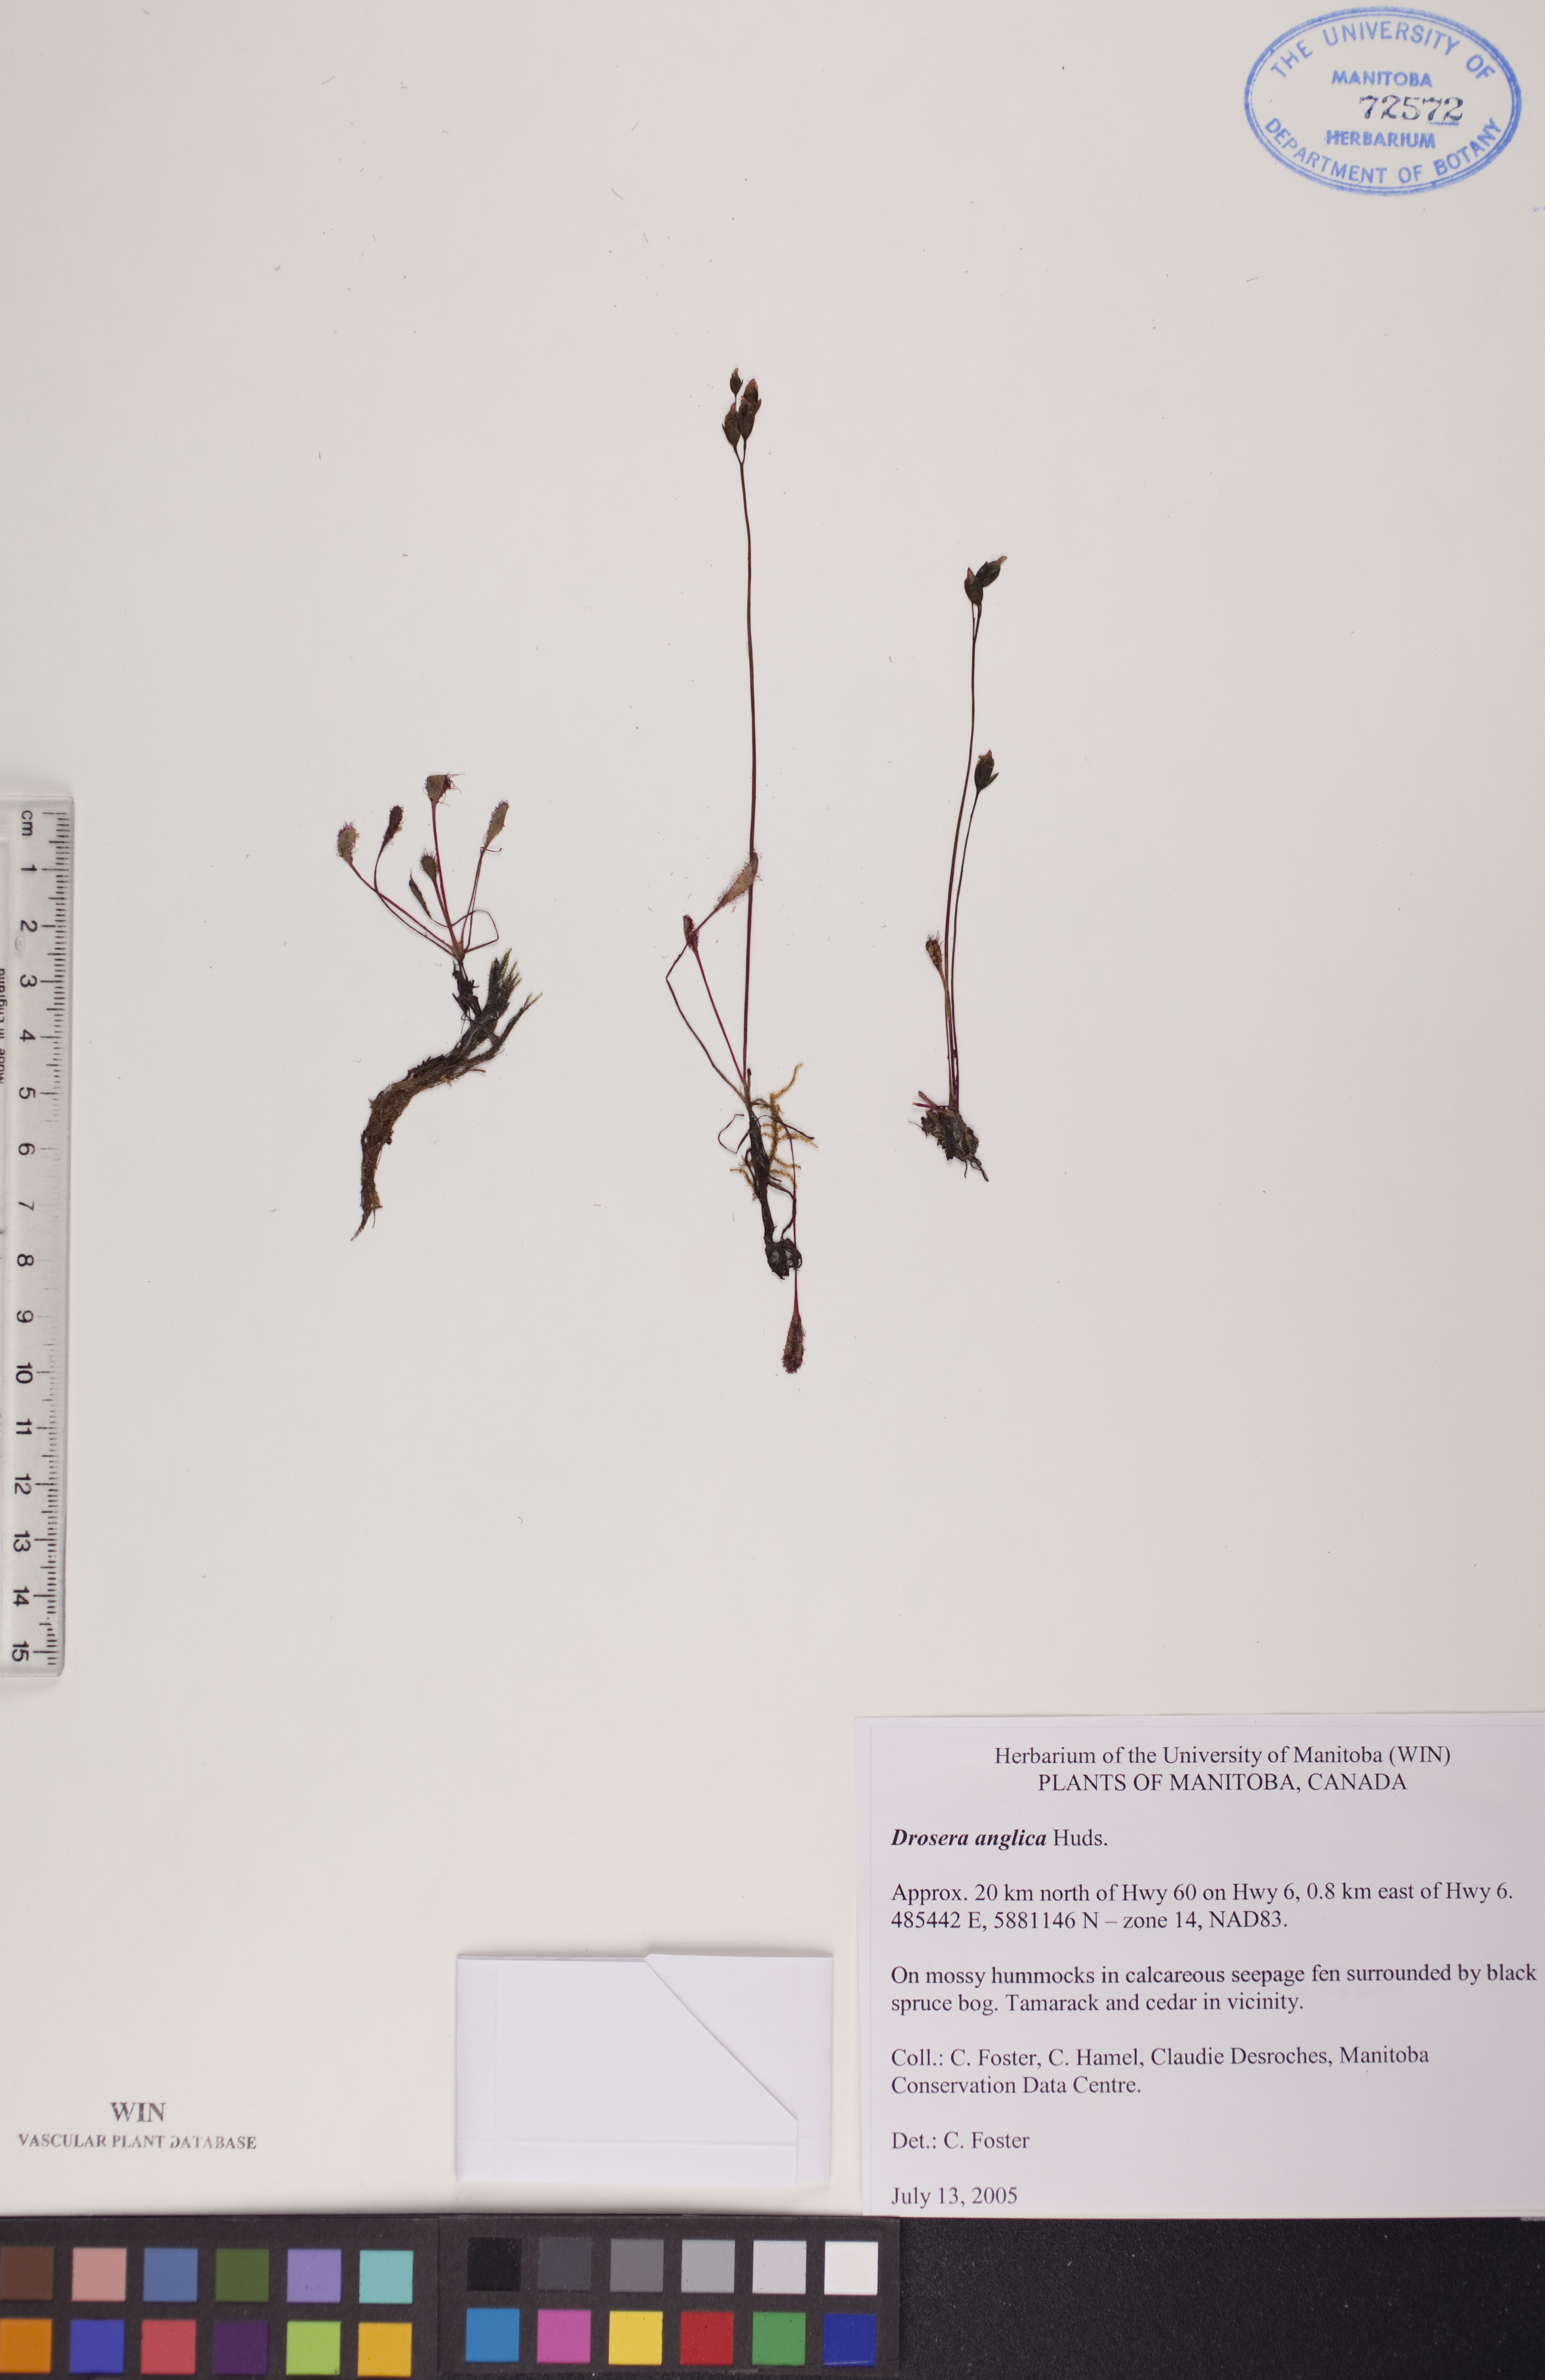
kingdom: Plantae
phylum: Tracheophyta
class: Magnoliopsida
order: Caryophyllales
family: Droseraceae
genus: Drosera
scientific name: Drosera anglica
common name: Great sundew
